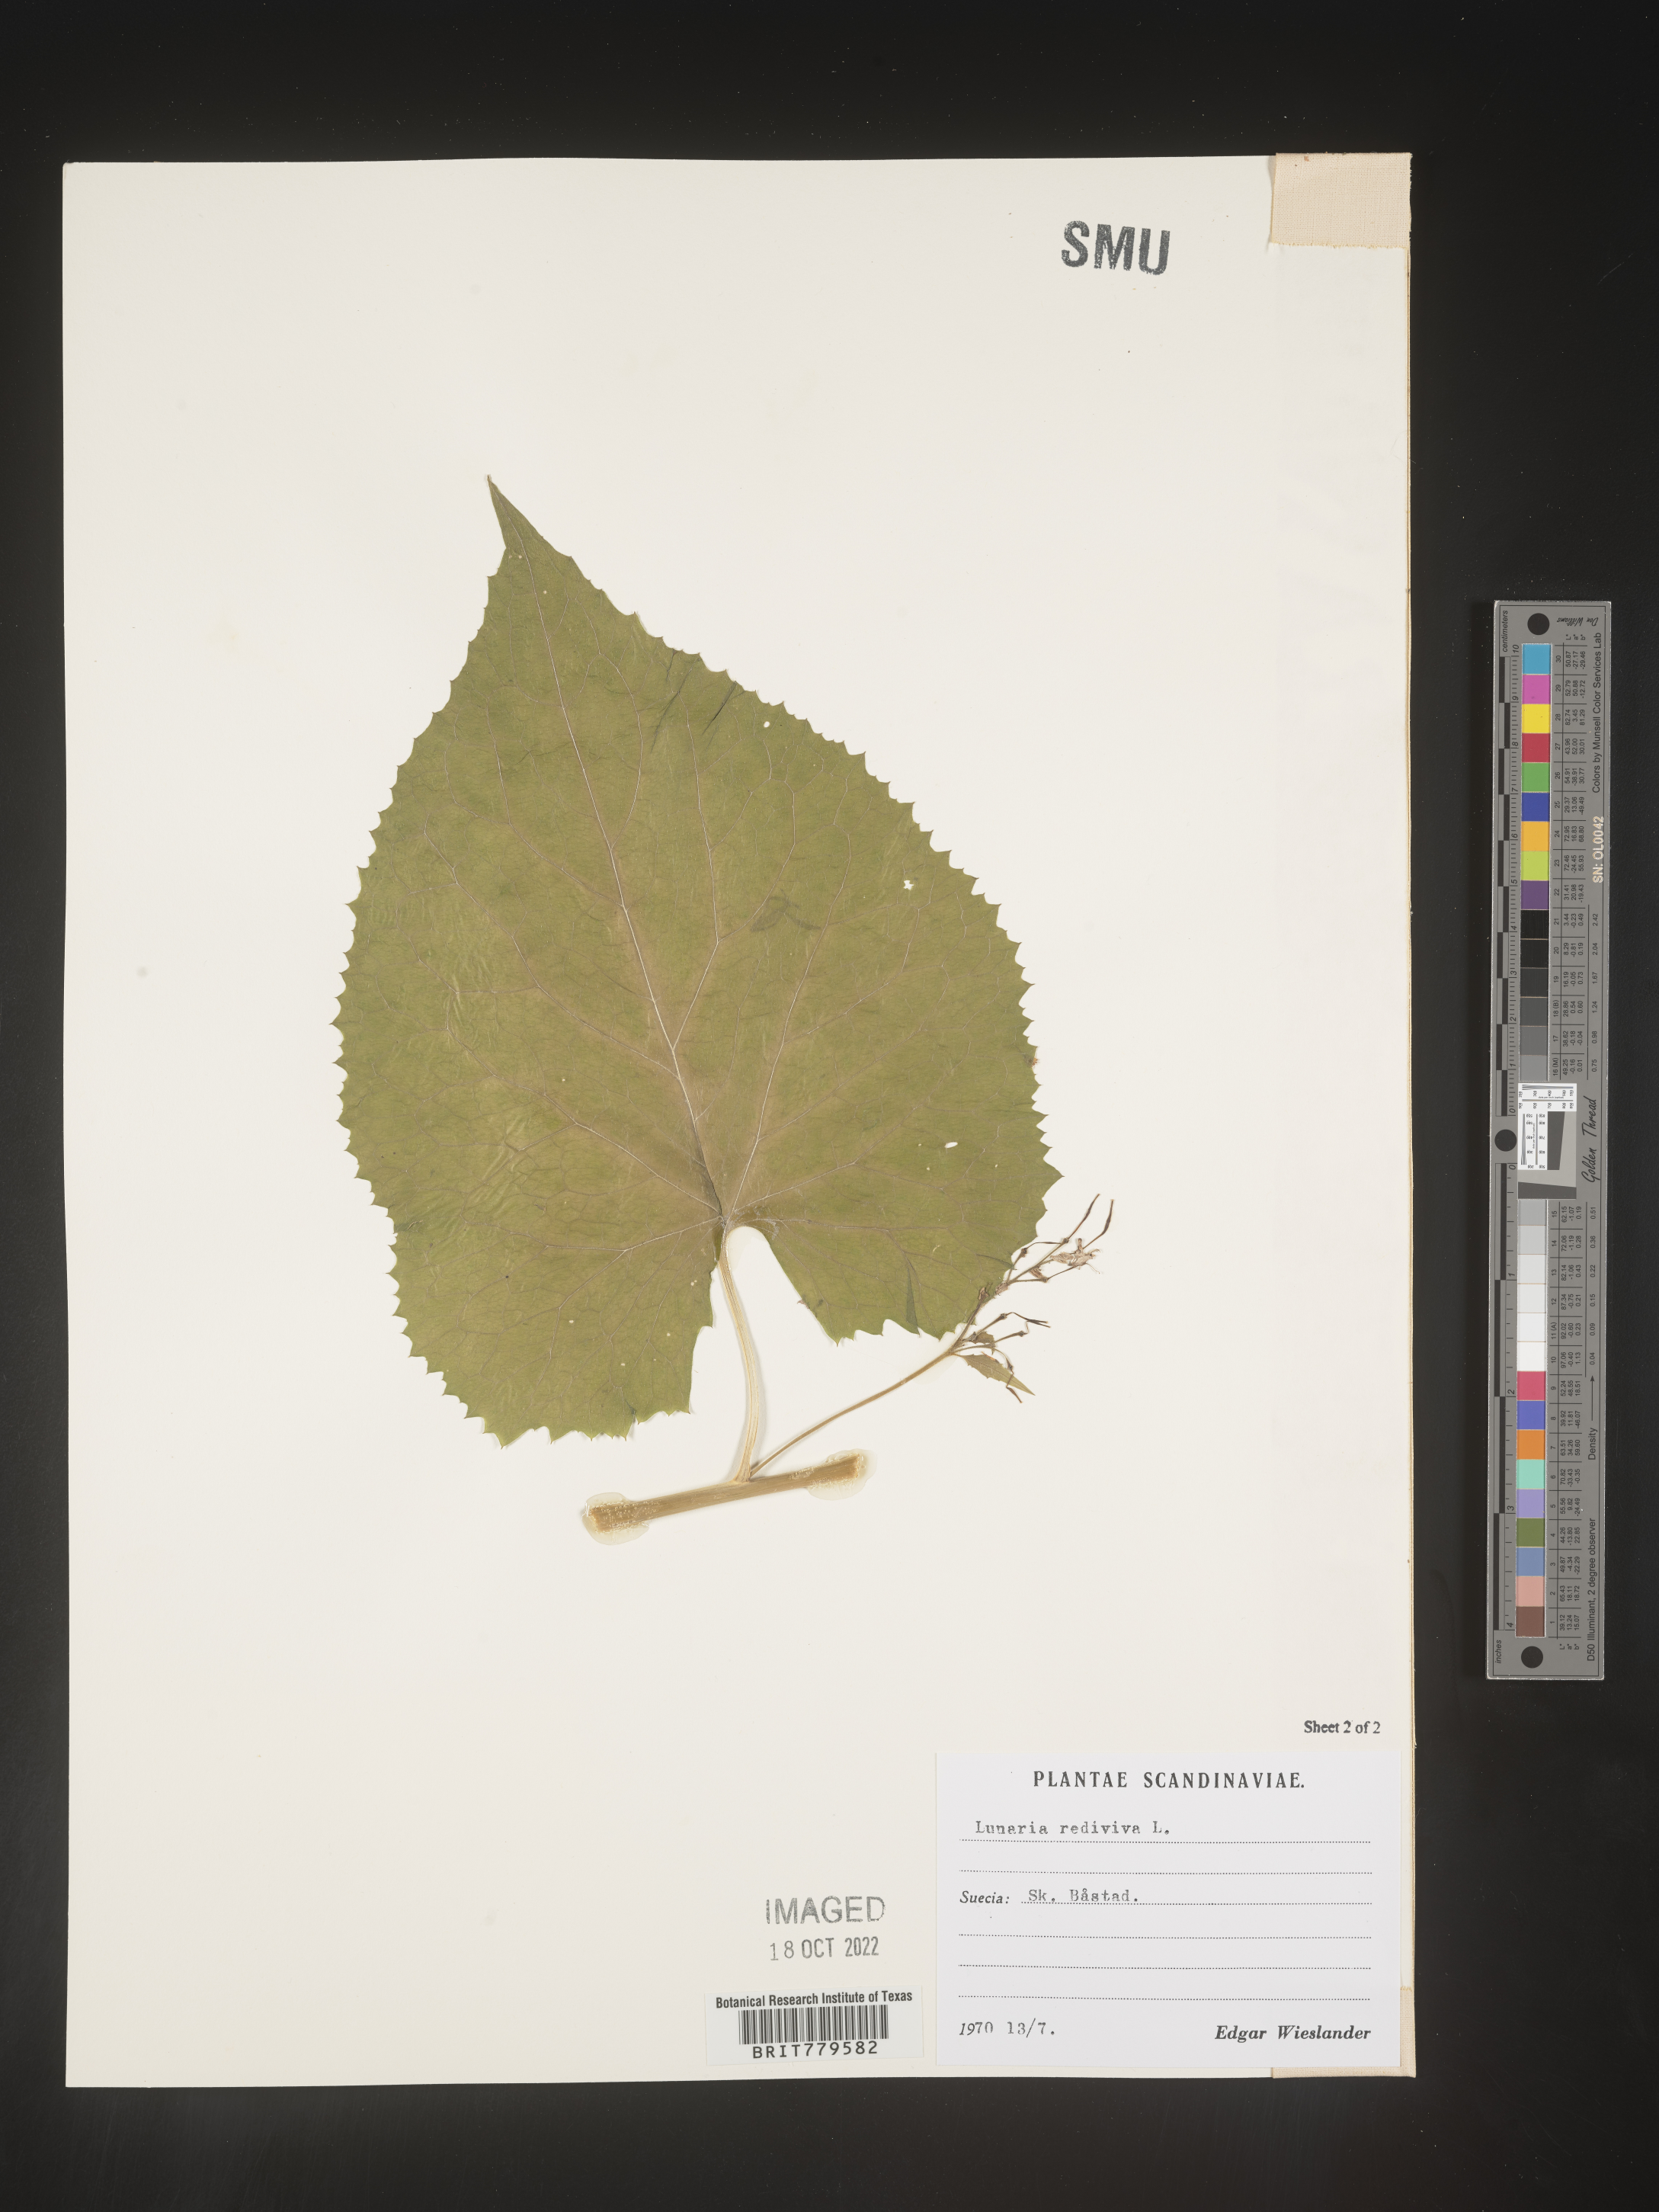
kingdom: Plantae
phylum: Tracheophyta
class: Magnoliopsida
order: Brassicales
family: Brassicaceae
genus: Lunaria
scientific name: Lunaria
